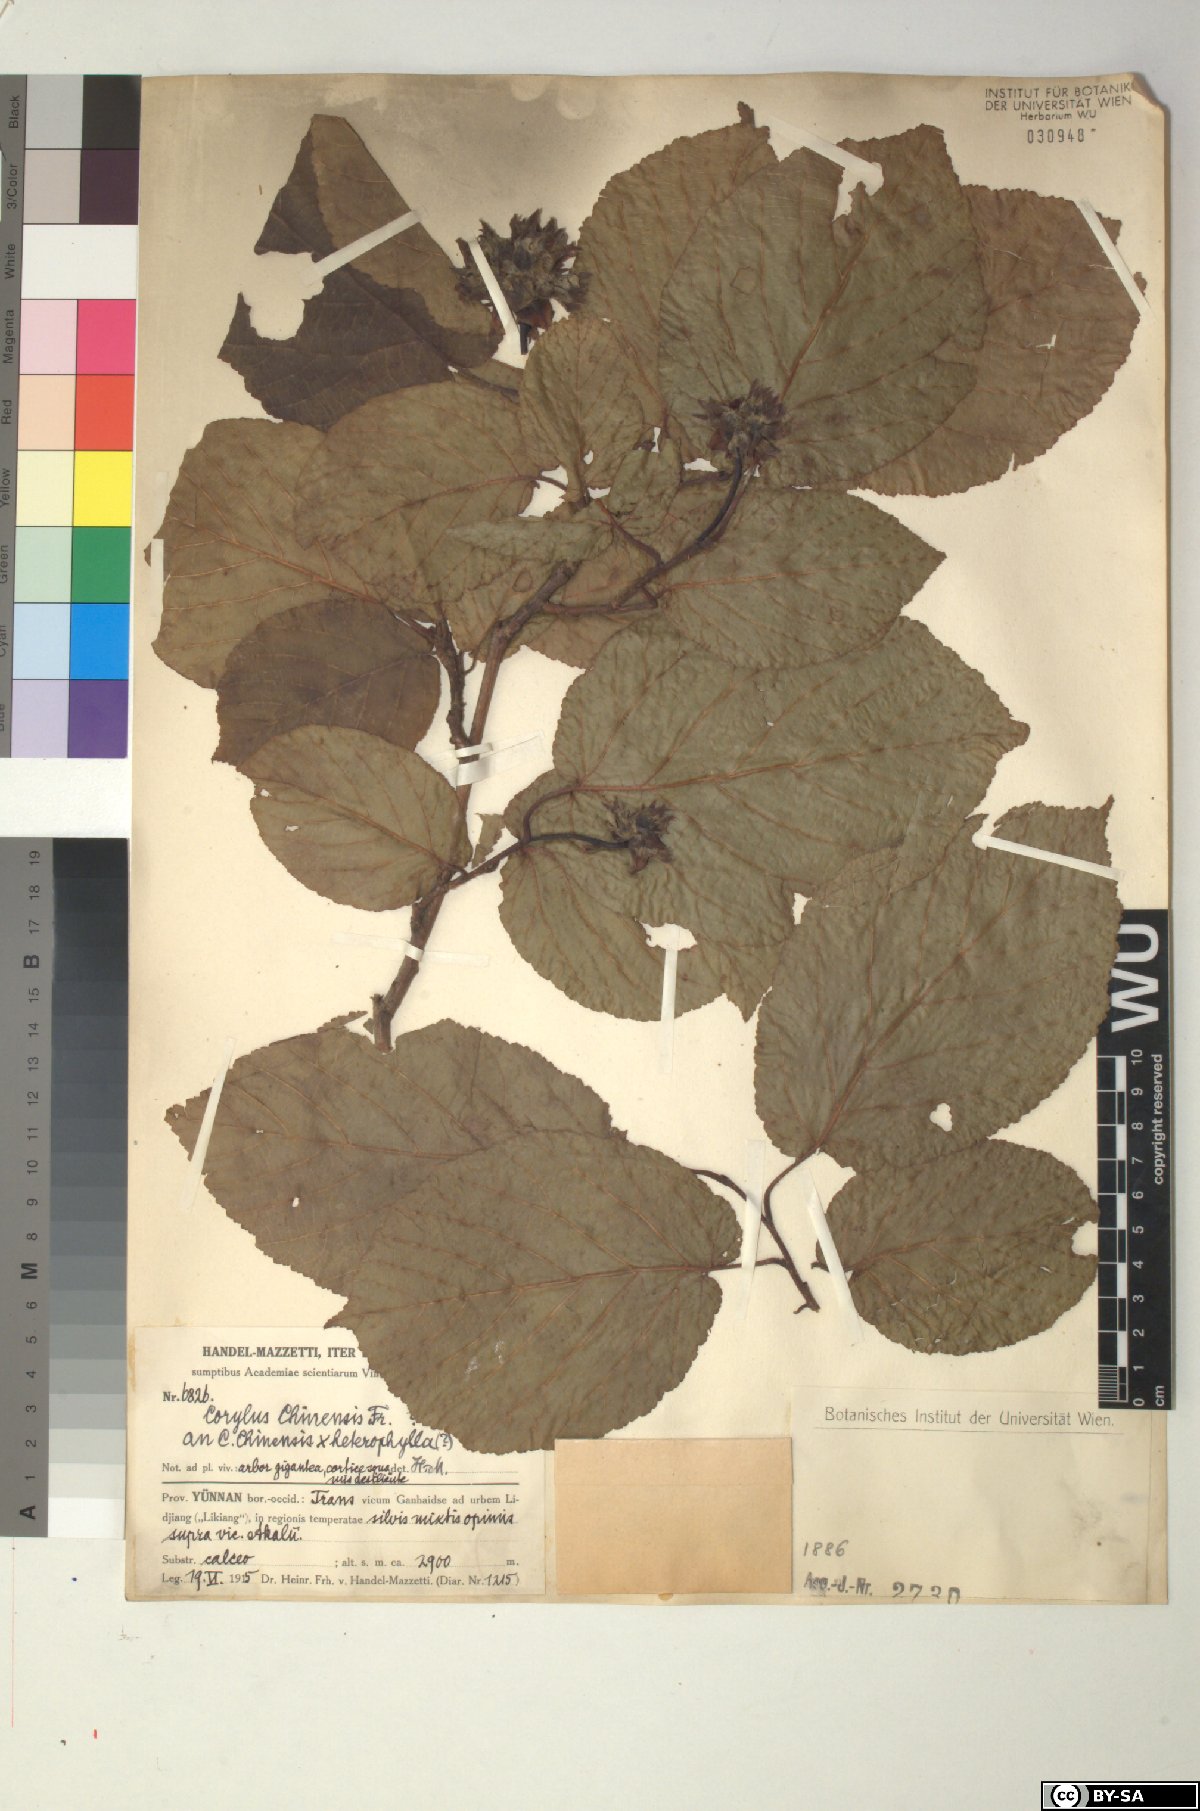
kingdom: Plantae
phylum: Tracheophyta
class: Magnoliopsida
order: Fagales
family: Betulaceae
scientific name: Betulaceae
